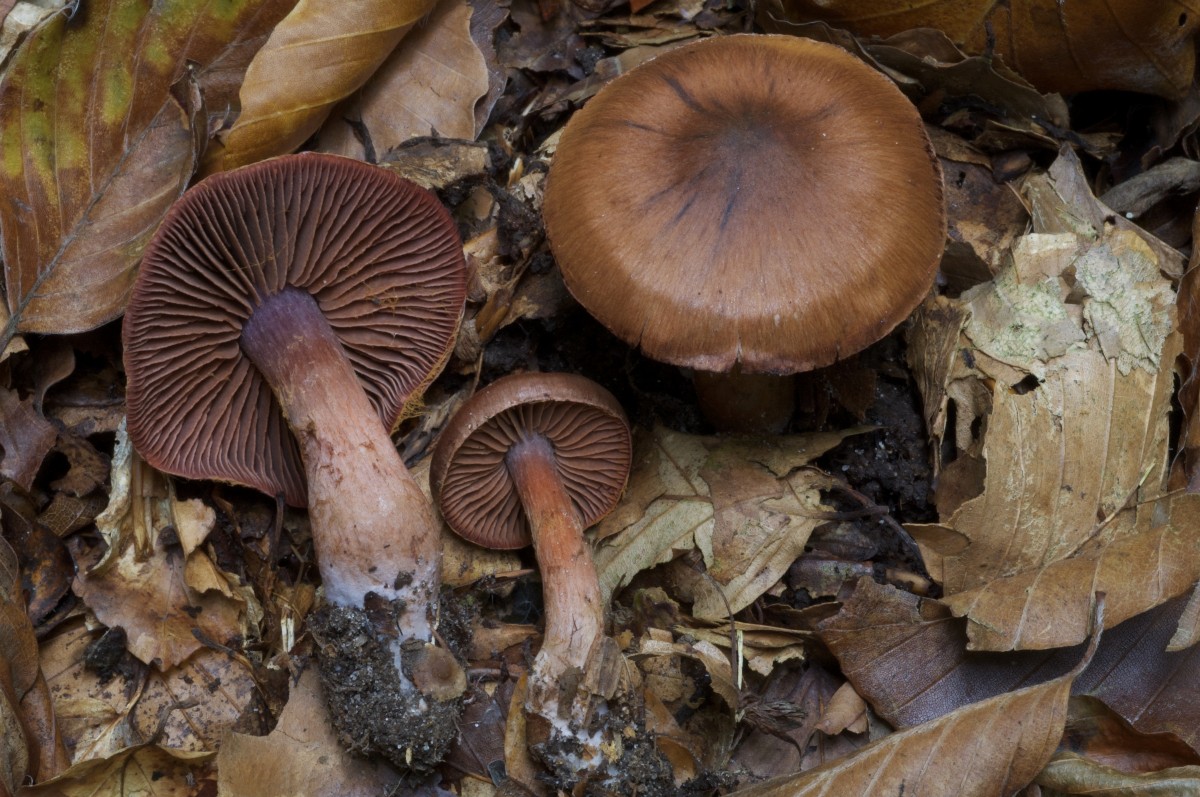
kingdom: Fungi
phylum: Basidiomycota
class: Agaricomycetes
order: Agaricales
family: Cortinariaceae
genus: Cortinarius
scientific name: Cortinarius danicus
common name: dansk slørhat
